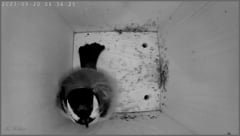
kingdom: Animalia
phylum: Chordata
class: Aves
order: Passeriformes
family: Paridae
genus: Parus
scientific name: Parus major
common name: Great tit
